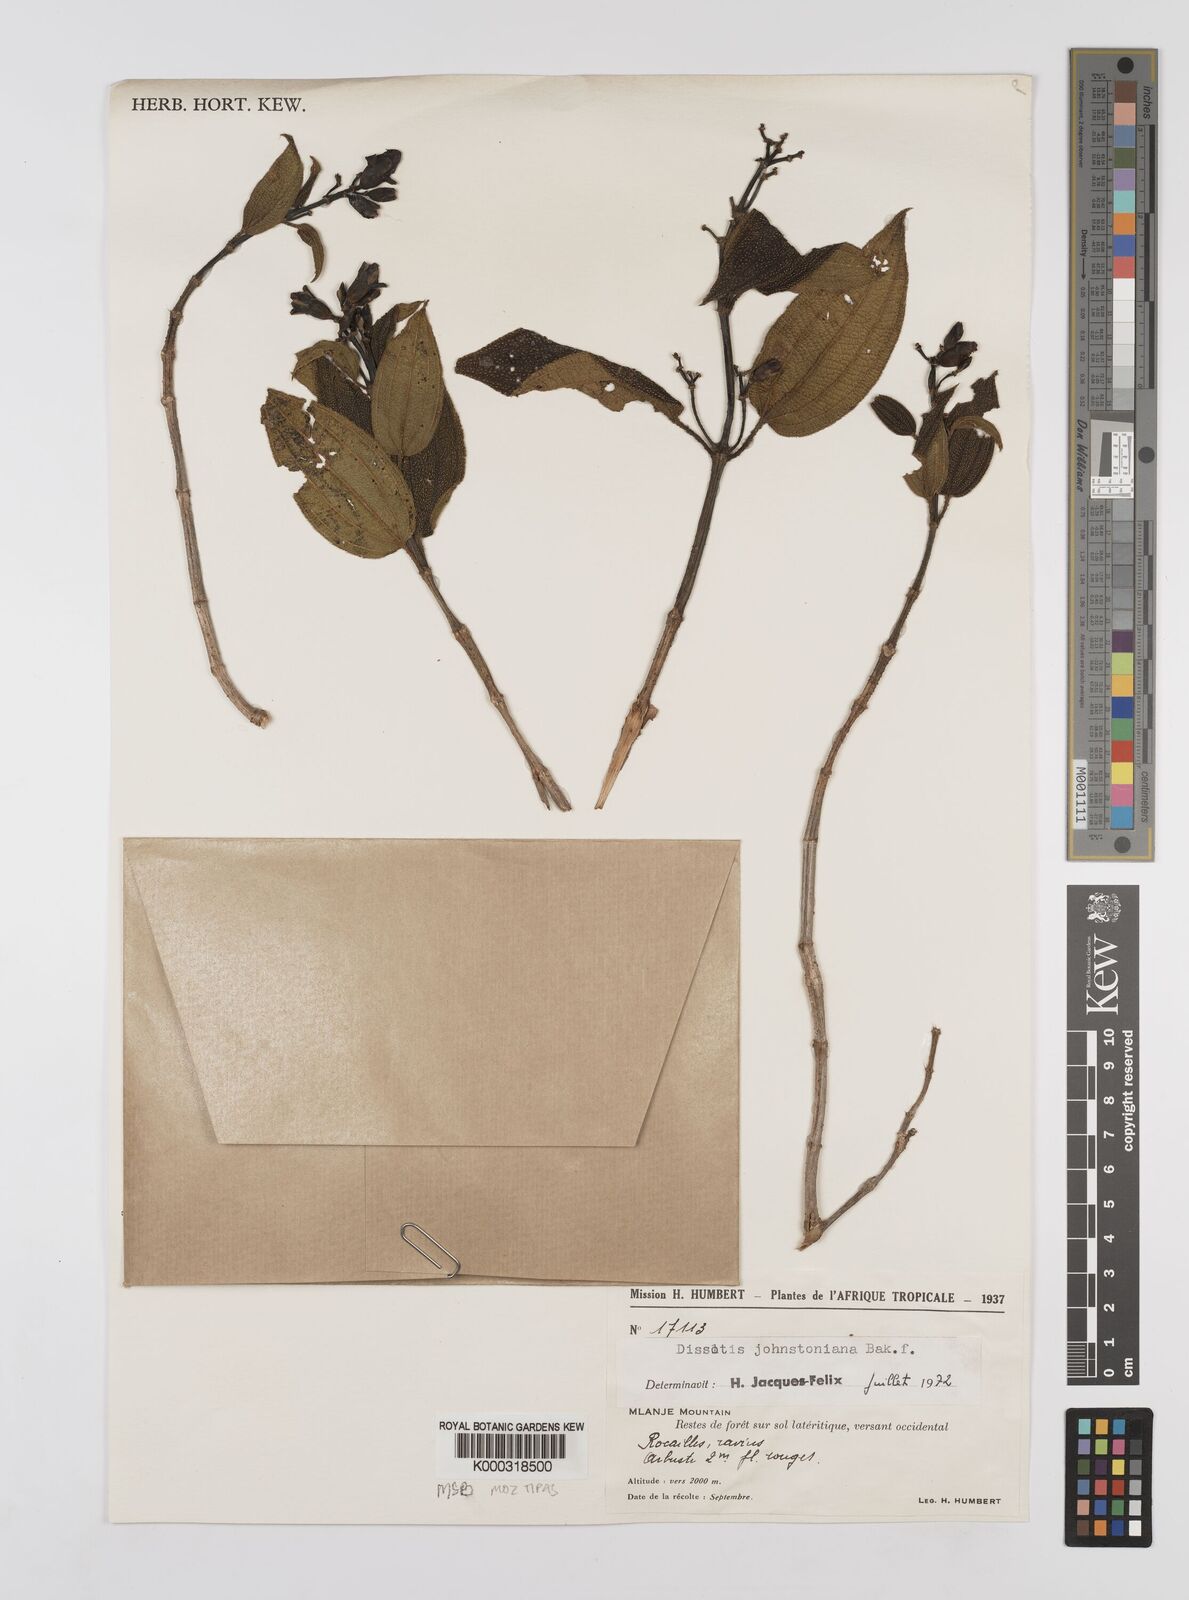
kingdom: Plantae
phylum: Tracheophyta
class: Magnoliopsida
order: Myrtales
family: Melastomataceae
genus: Dissotidendron
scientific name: Dissotidendron johnstonianum
